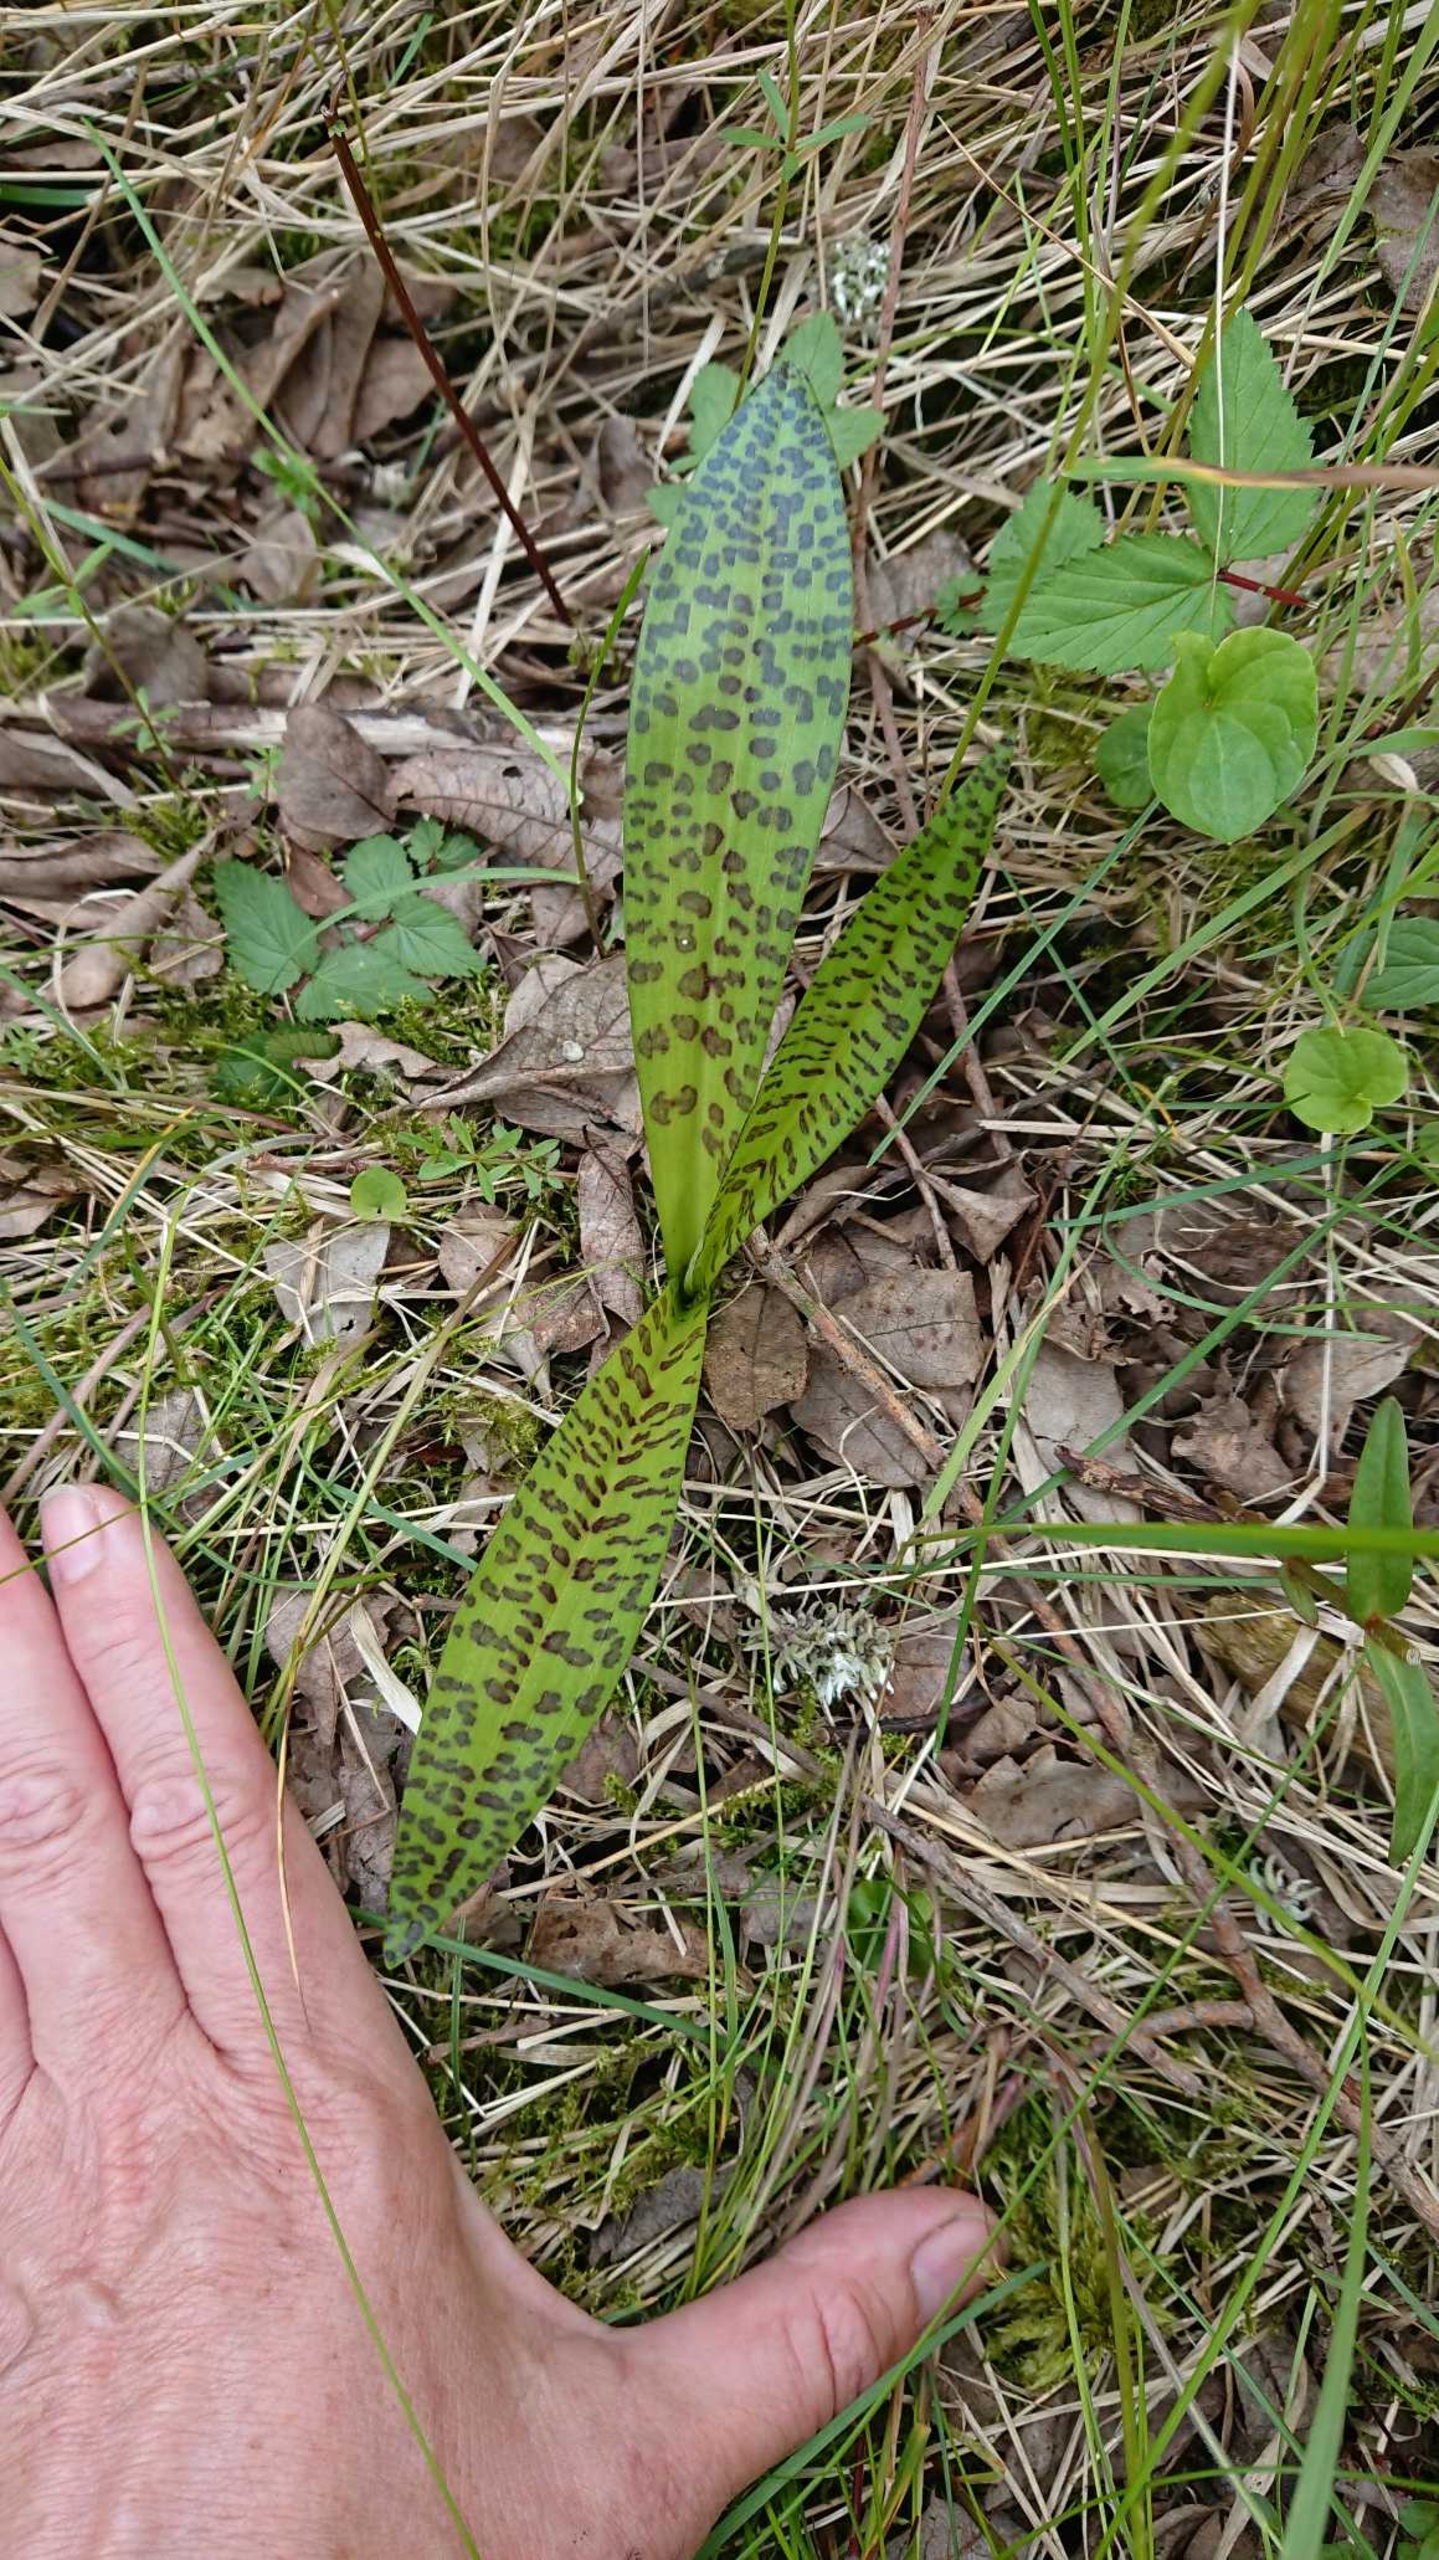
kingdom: Plantae
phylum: Tracheophyta
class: Liliopsida
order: Asparagales
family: Orchidaceae
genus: Dactylorhiza
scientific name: Dactylorhiza maculata
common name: Plettet gøgeurt
